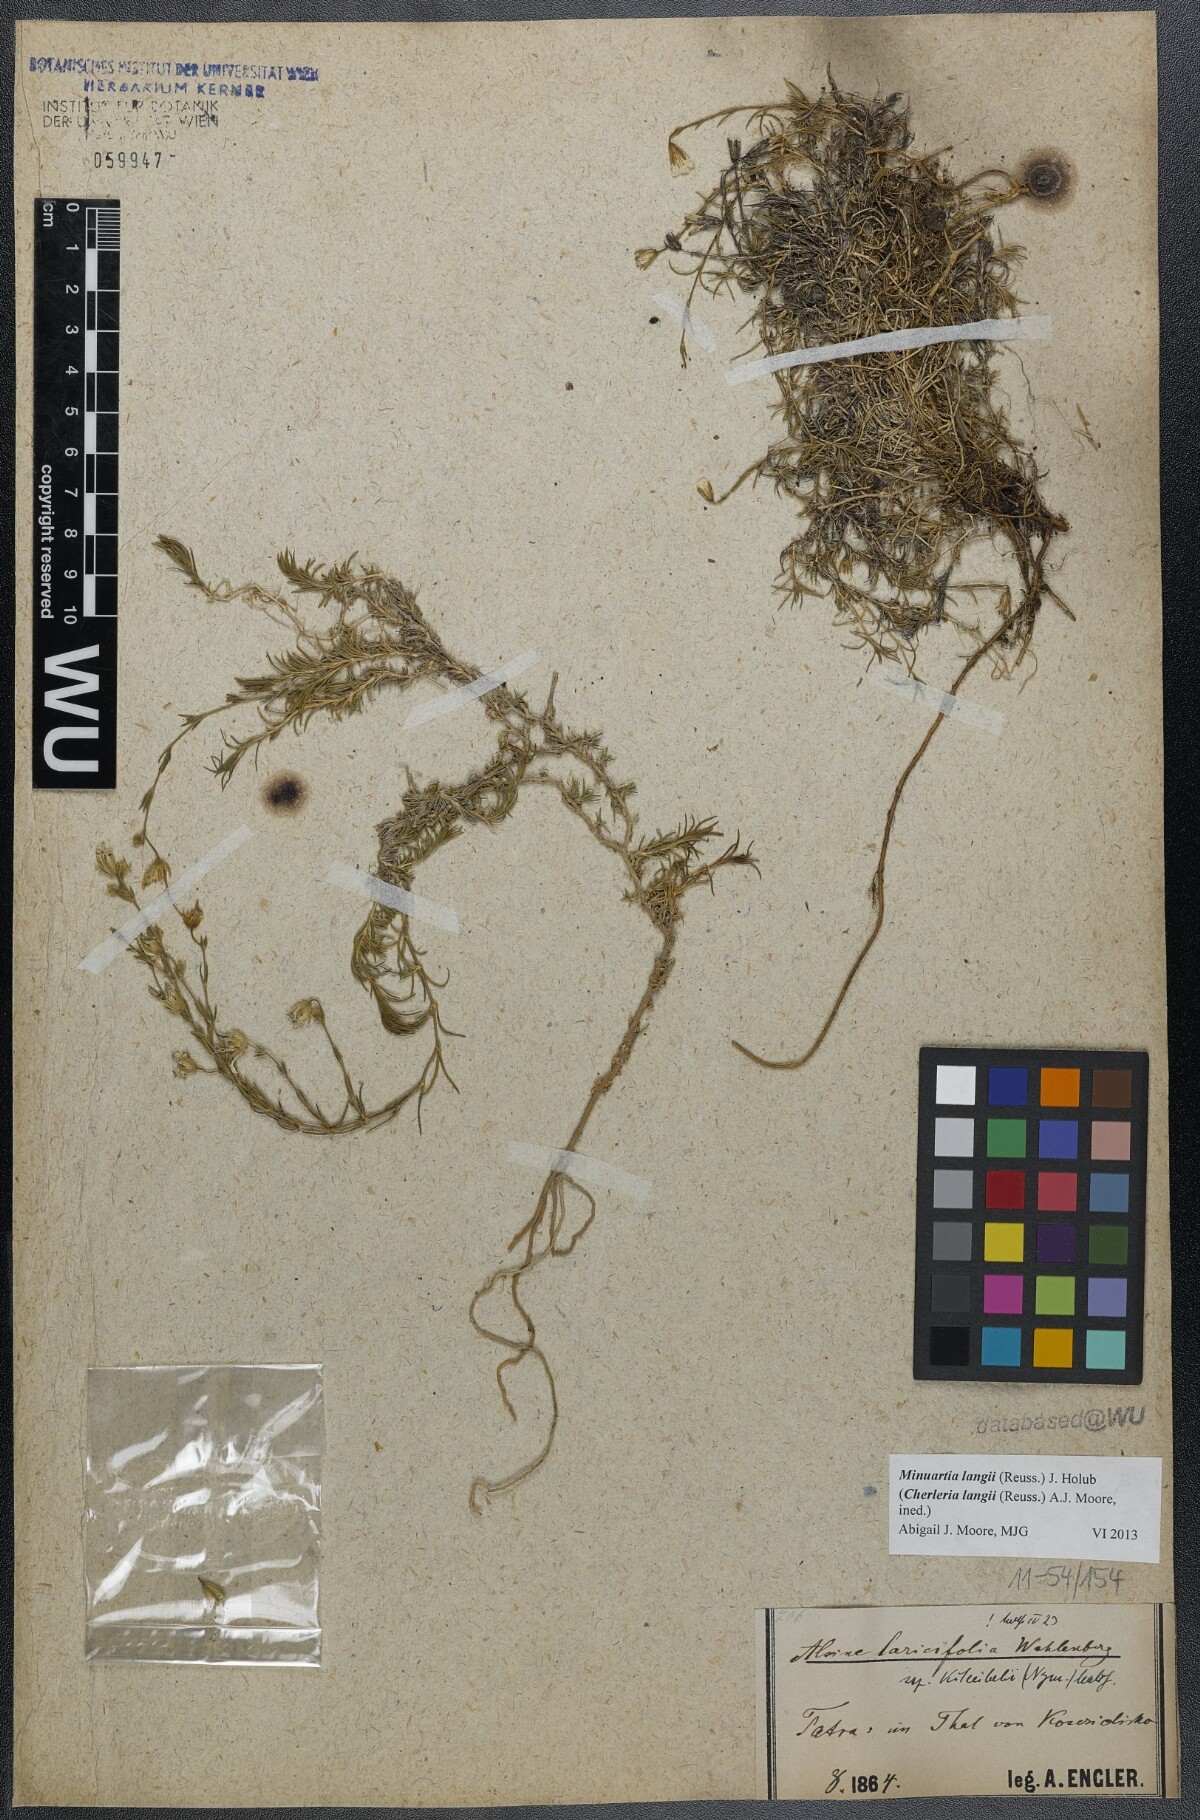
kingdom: Plantae
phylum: Tracheophyta
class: Magnoliopsida
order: Caryophyllales
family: Caryophyllaceae
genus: Cherleria
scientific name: Cherleria langii
